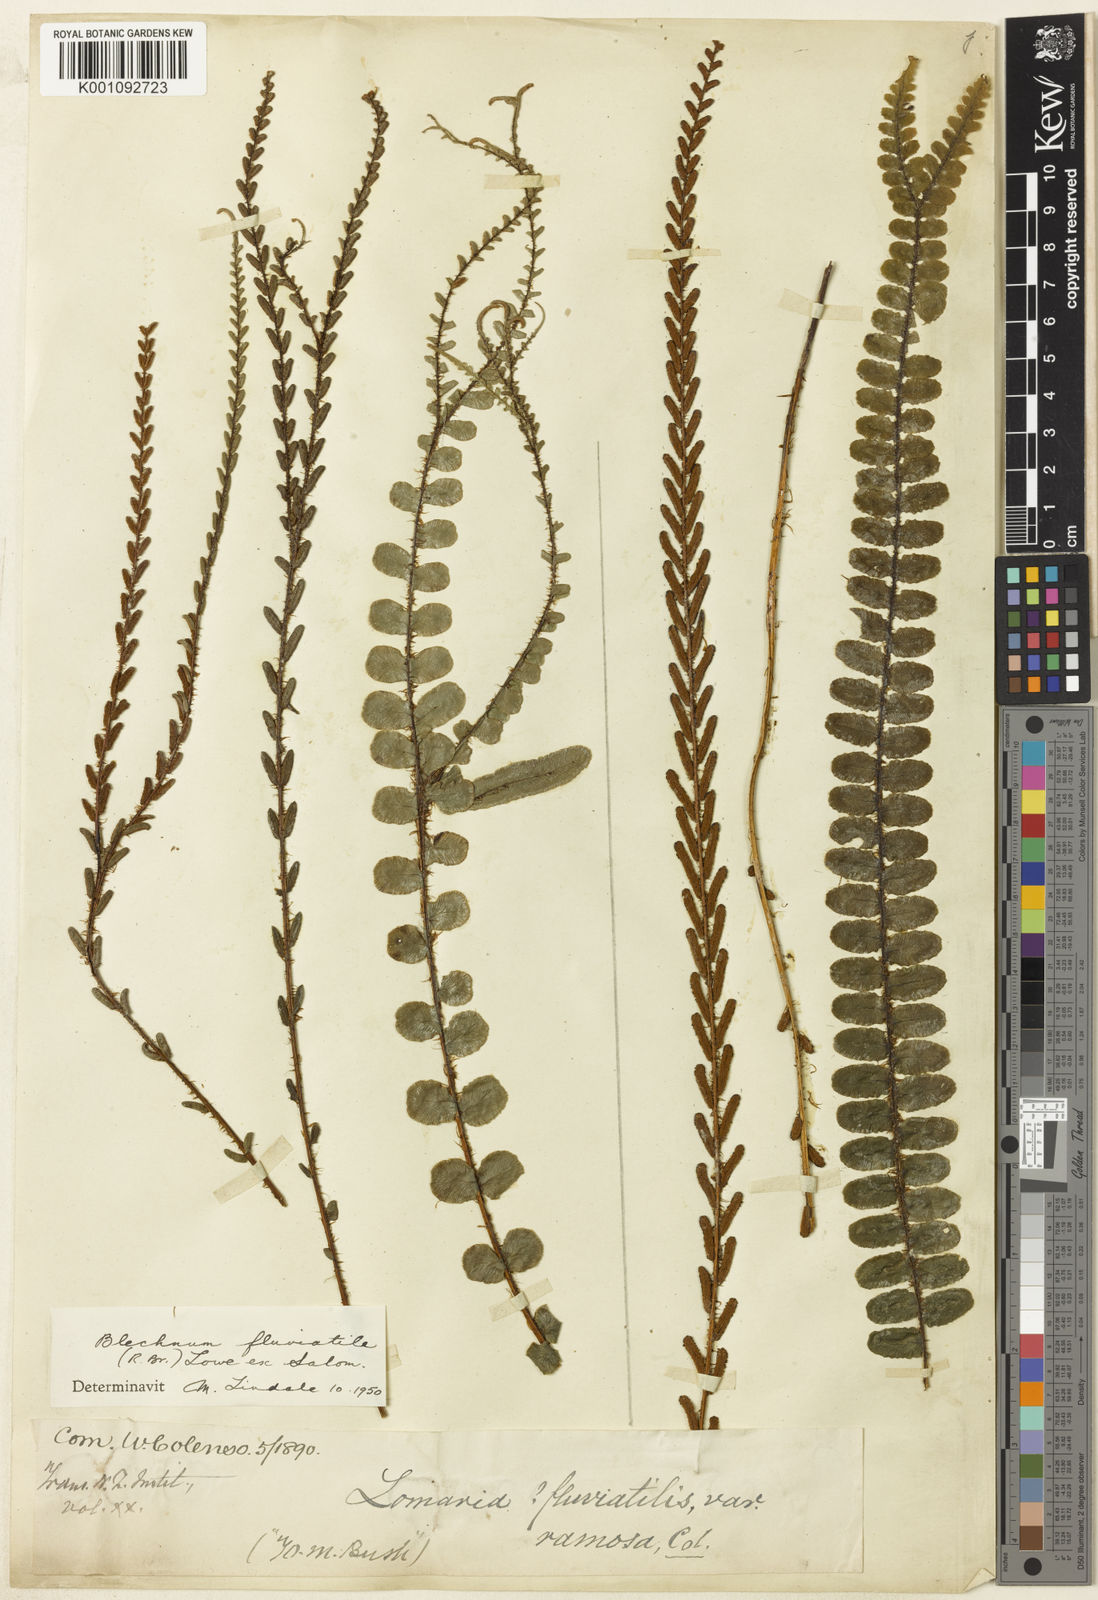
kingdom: Plantae
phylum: Tracheophyta
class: Polypodiopsida
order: Polypodiales
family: Blechnaceae
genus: Blechnum
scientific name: Blechnum
